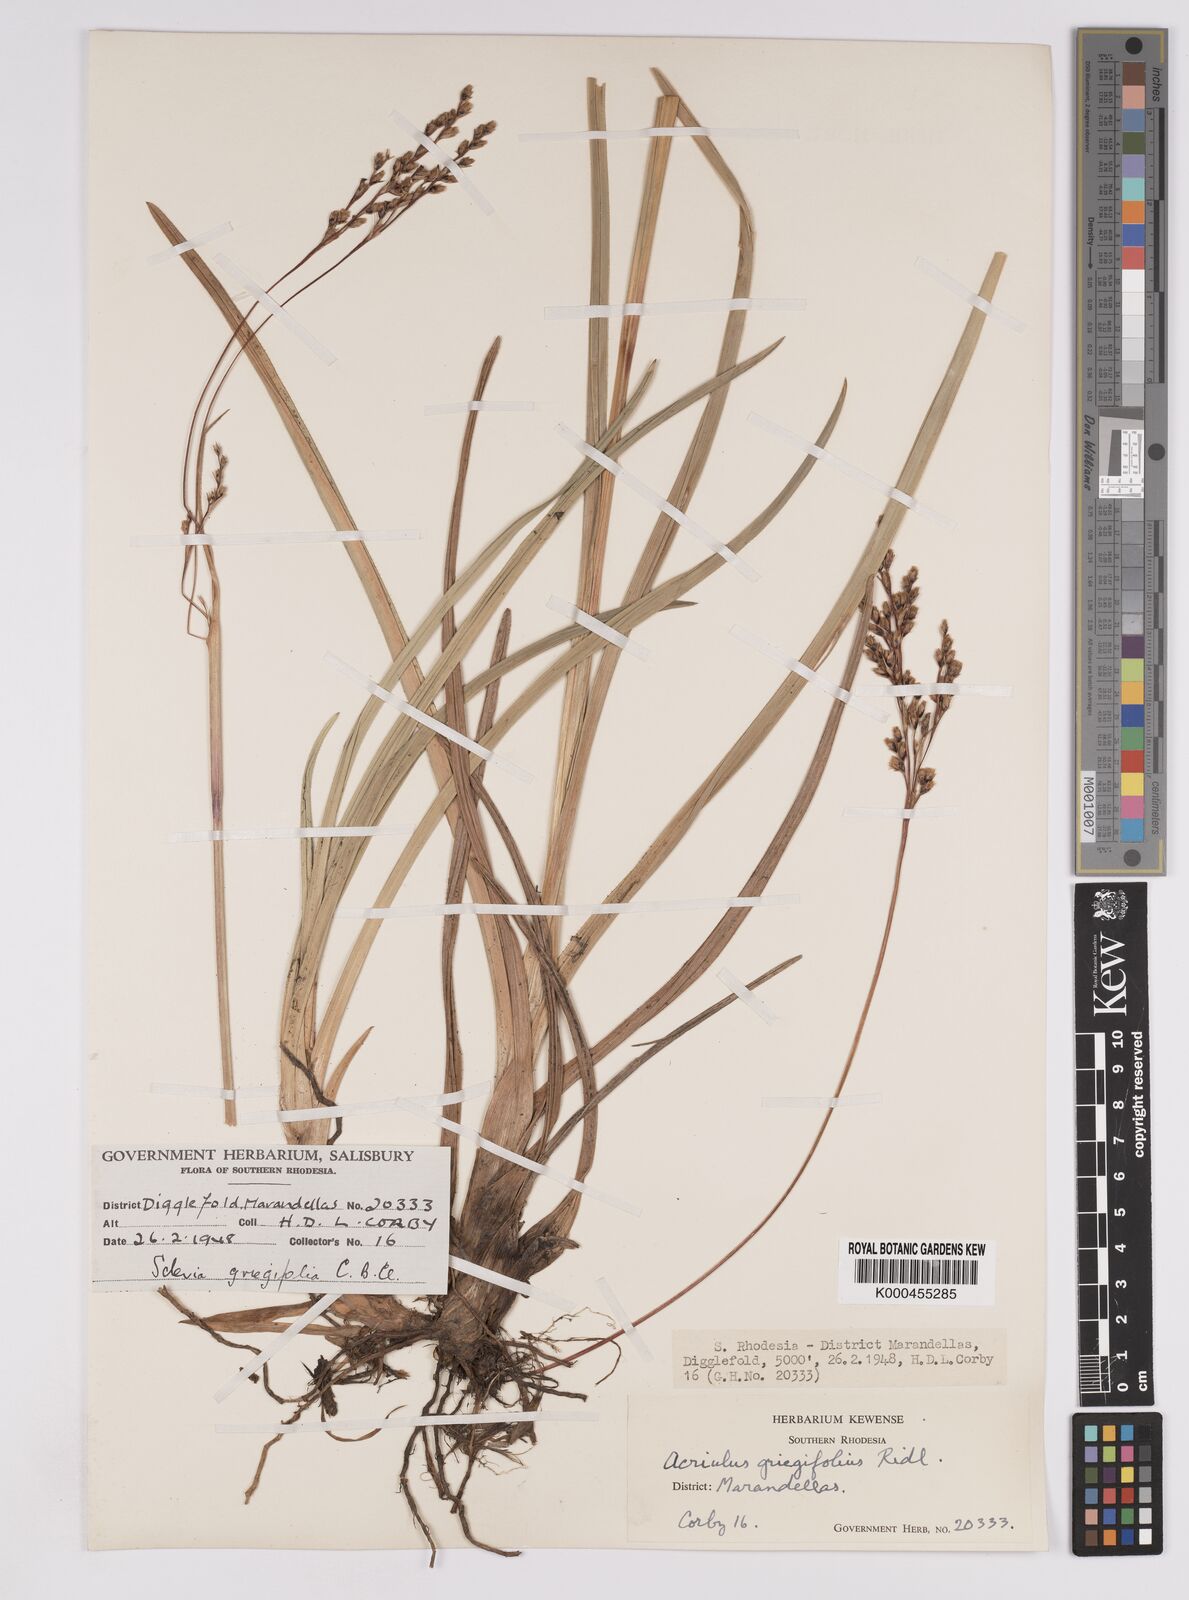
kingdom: Plantae
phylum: Tracheophyta
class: Liliopsida
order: Poales
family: Cyperaceae
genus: Scleria
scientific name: Scleria greigiifolia
